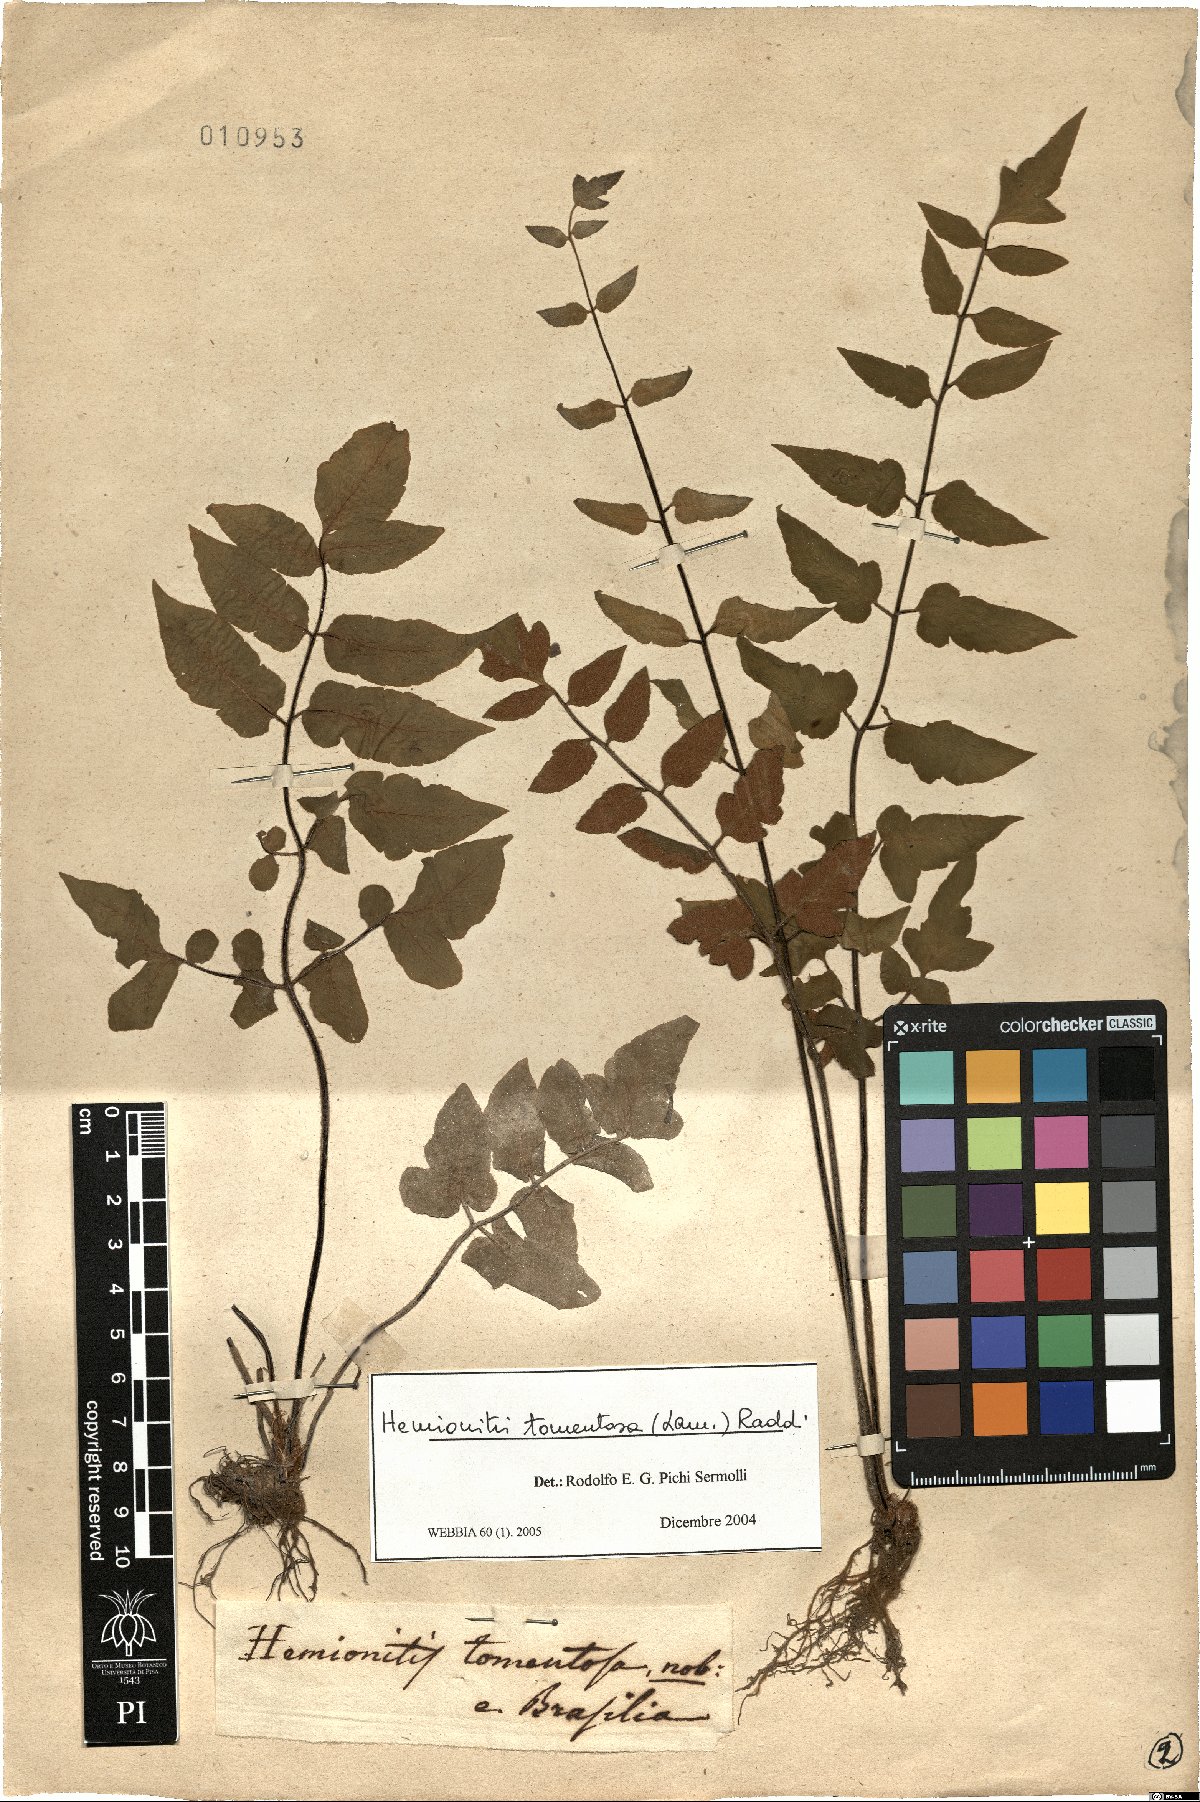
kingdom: Plantae
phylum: Tracheophyta
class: Polypodiopsida
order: Polypodiales
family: Pteridaceae
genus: Hemionitis
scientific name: Hemionitis tomentosa
